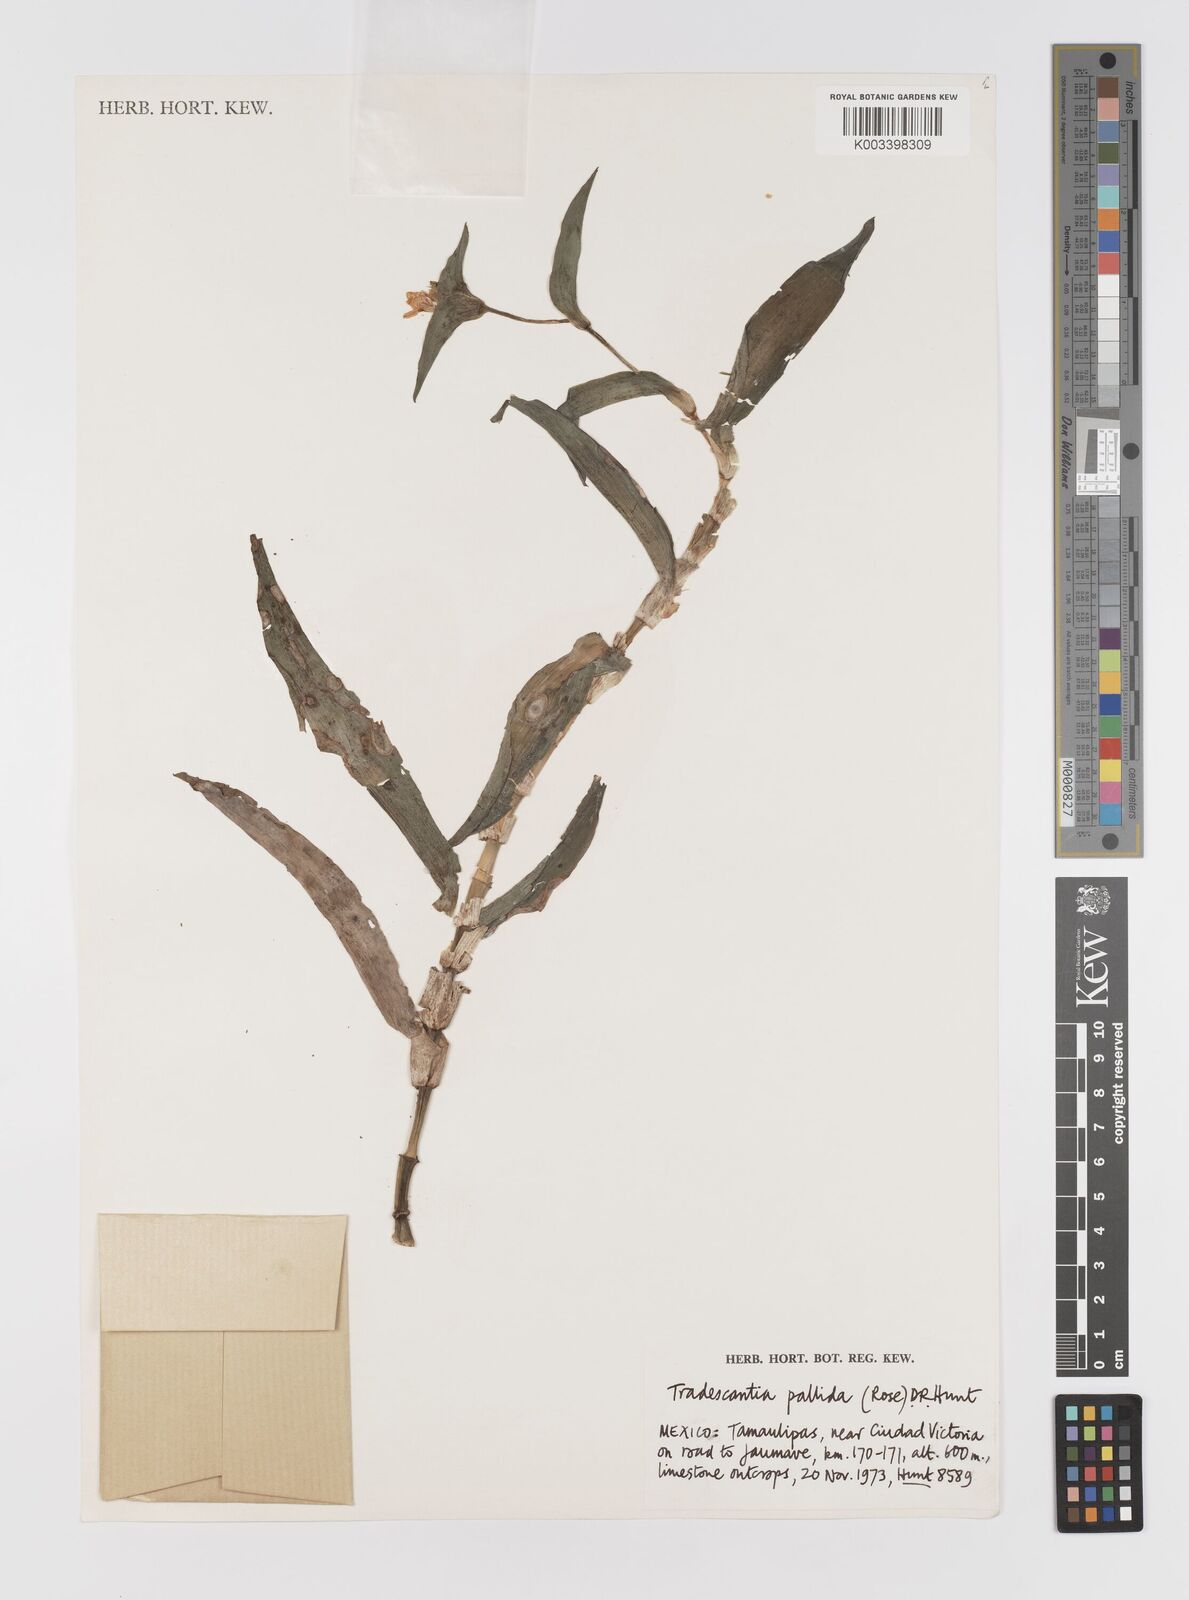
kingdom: Plantae
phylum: Tracheophyta
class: Liliopsida
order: Commelinales
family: Commelinaceae
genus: Tradescantia
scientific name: Tradescantia pallida
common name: Purpleheart
